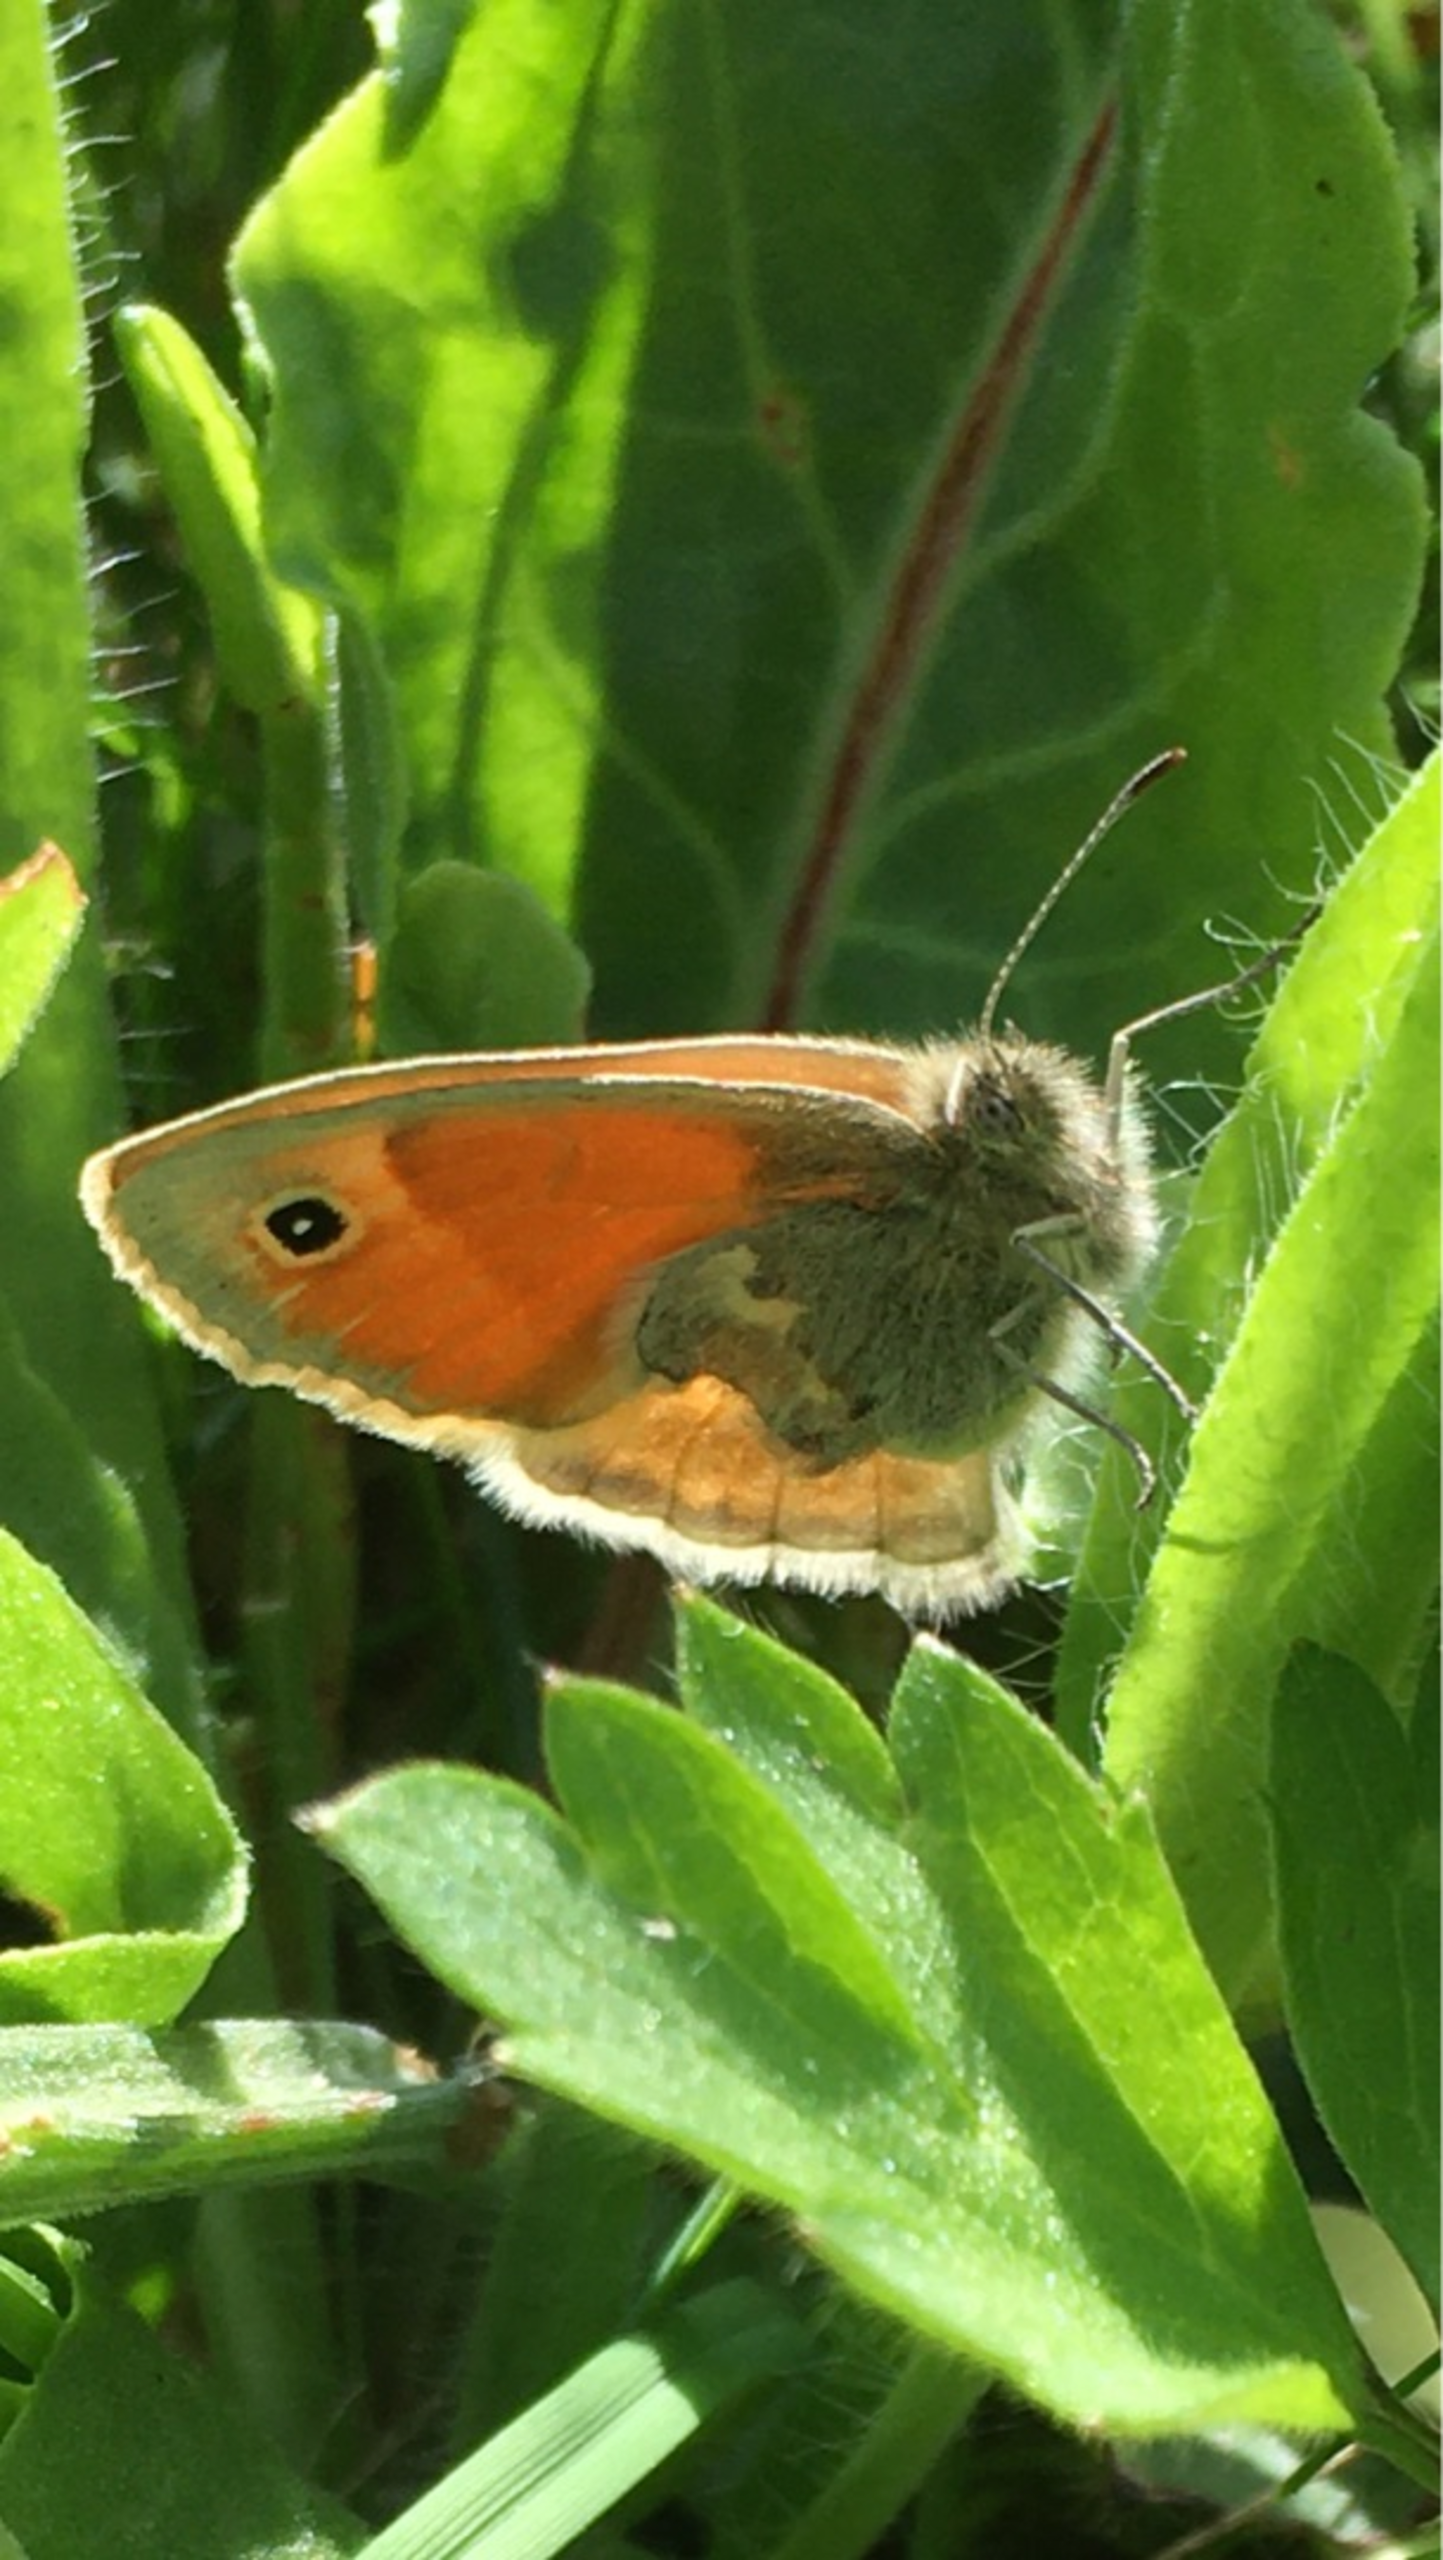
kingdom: Animalia
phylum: Arthropoda
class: Insecta
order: Lepidoptera
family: Nymphalidae
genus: Coenonympha
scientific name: Coenonympha pamphilus
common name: Okkergul randøje
